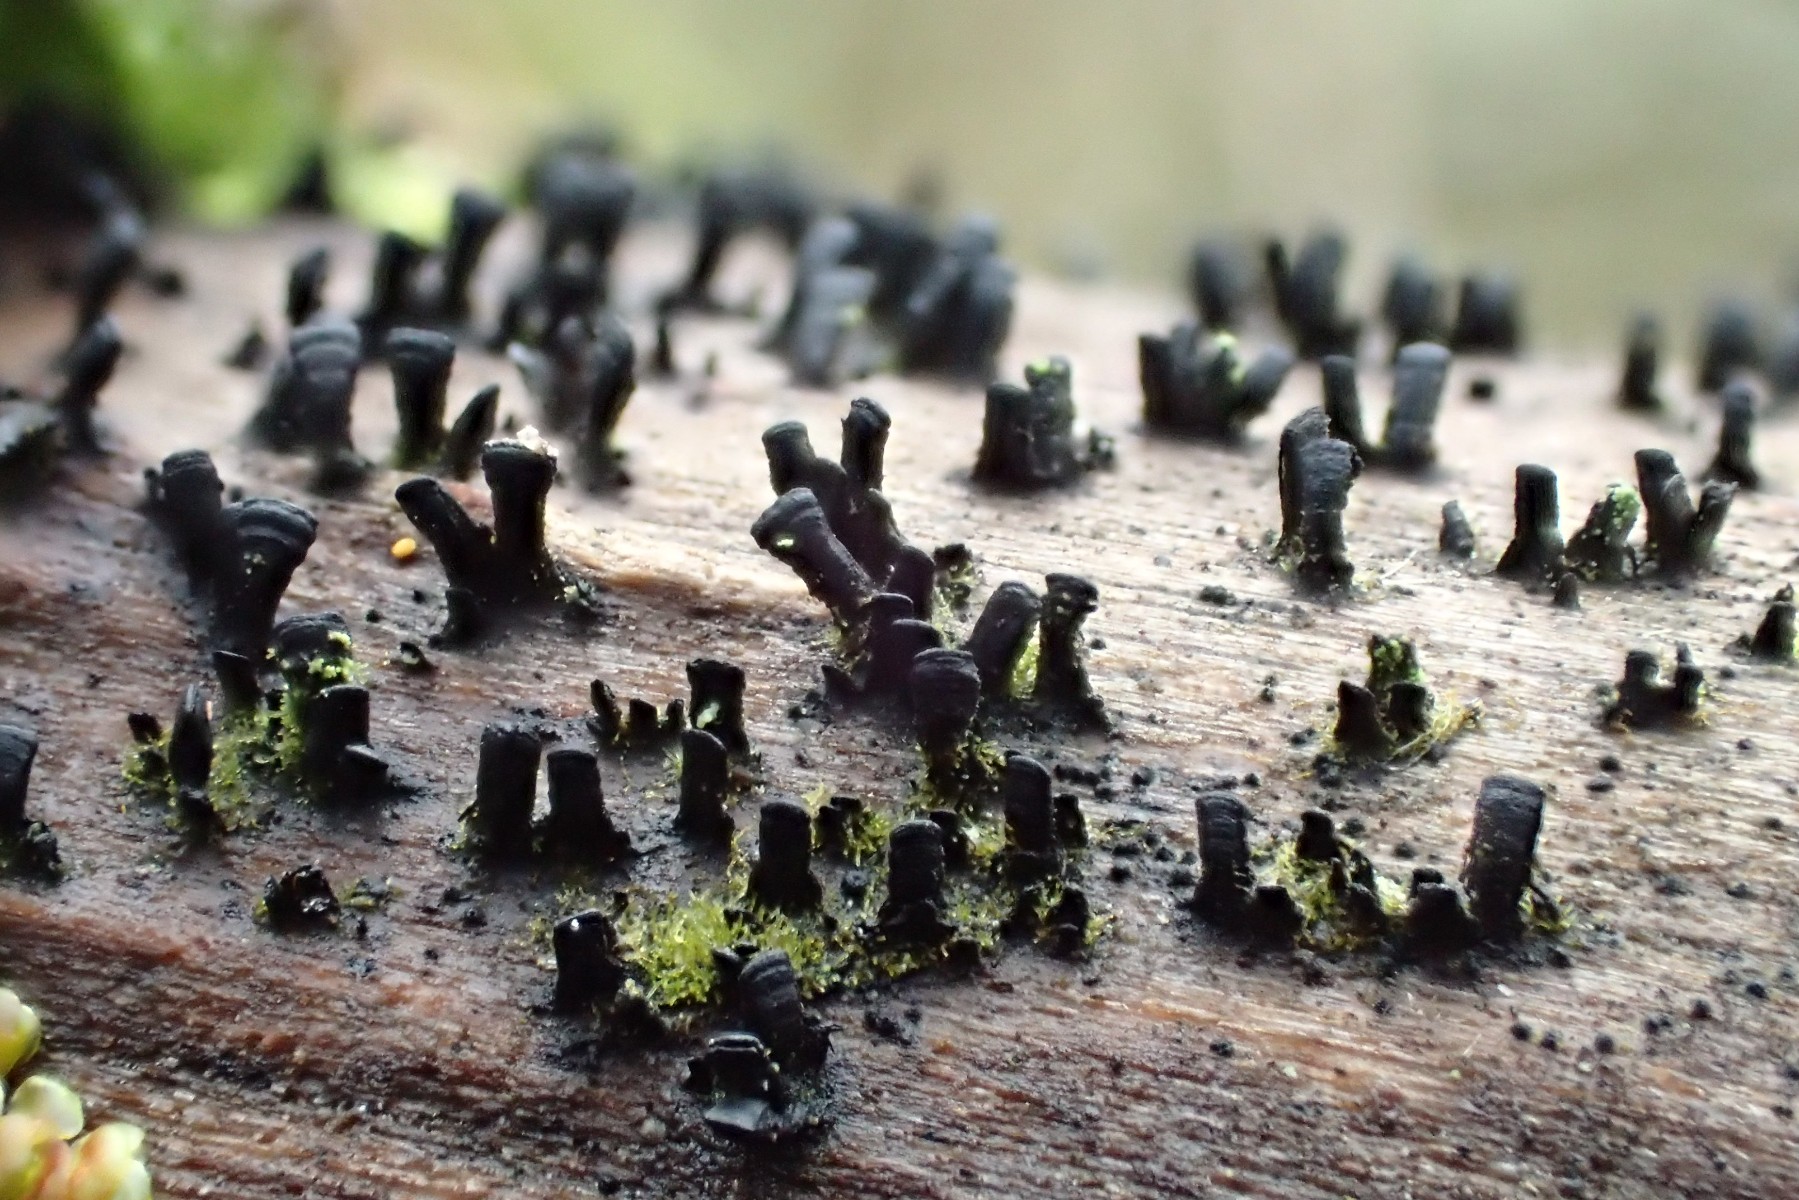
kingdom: Fungi
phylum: Ascomycota
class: Eurotiomycetes
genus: Glyphium
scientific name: Glyphium elatum
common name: kuløkse
